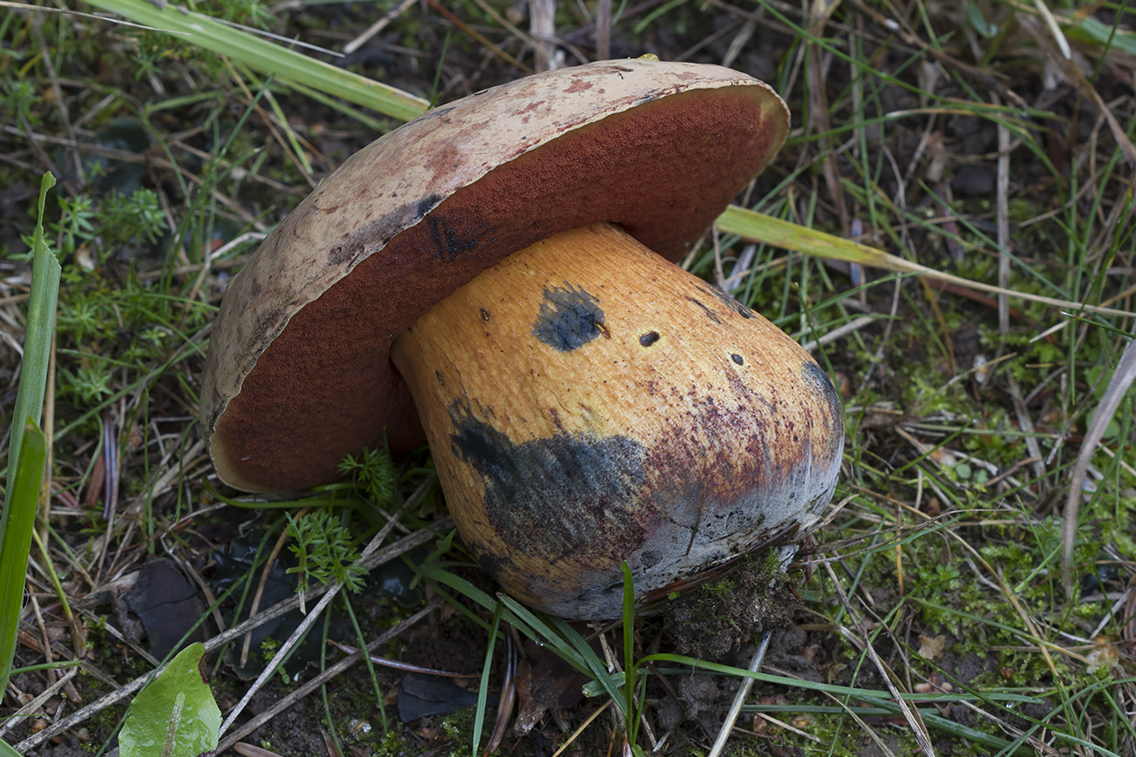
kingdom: Fungi
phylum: Basidiomycota
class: Agaricomycetes
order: Boletales
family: Boletaceae
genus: Suillellus
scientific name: Suillellus luridus
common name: netstokket indigorørhat
